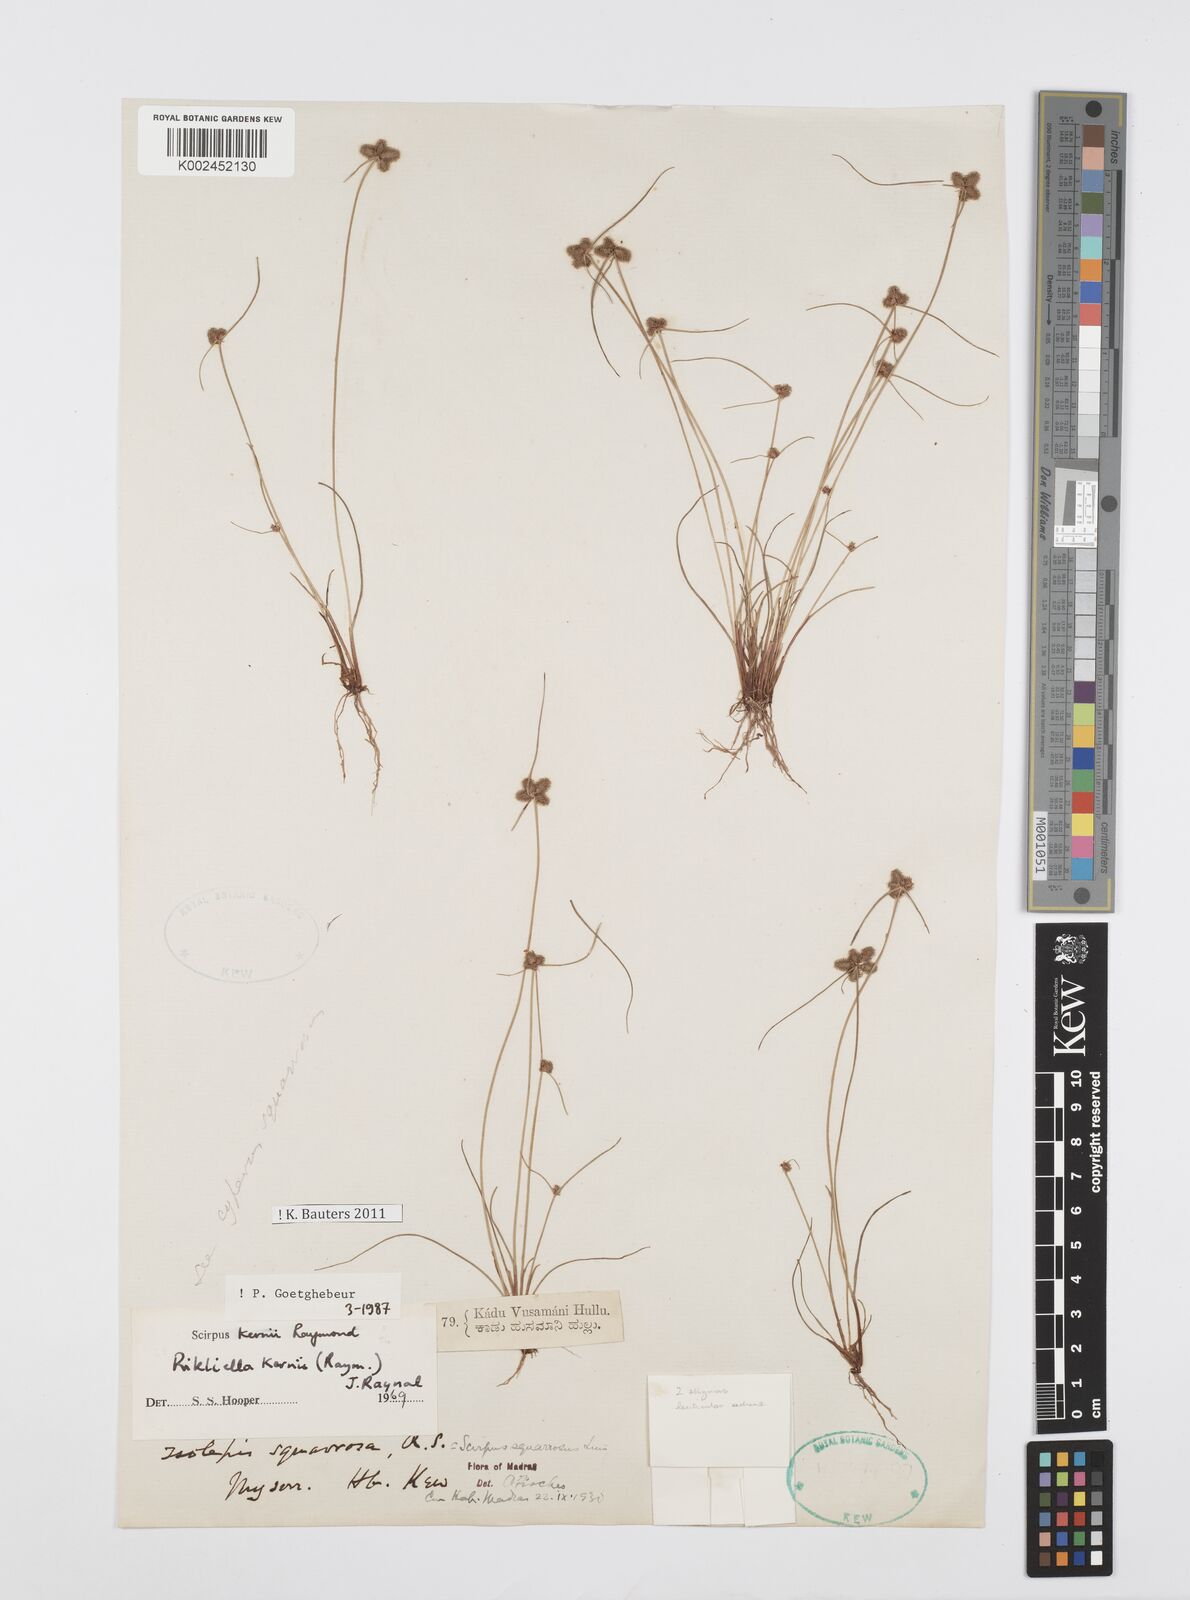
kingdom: Plantae
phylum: Tracheophyta
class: Liliopsida
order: Poales
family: Cyperaceae
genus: Cyperus
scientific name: Cyperus kernii
